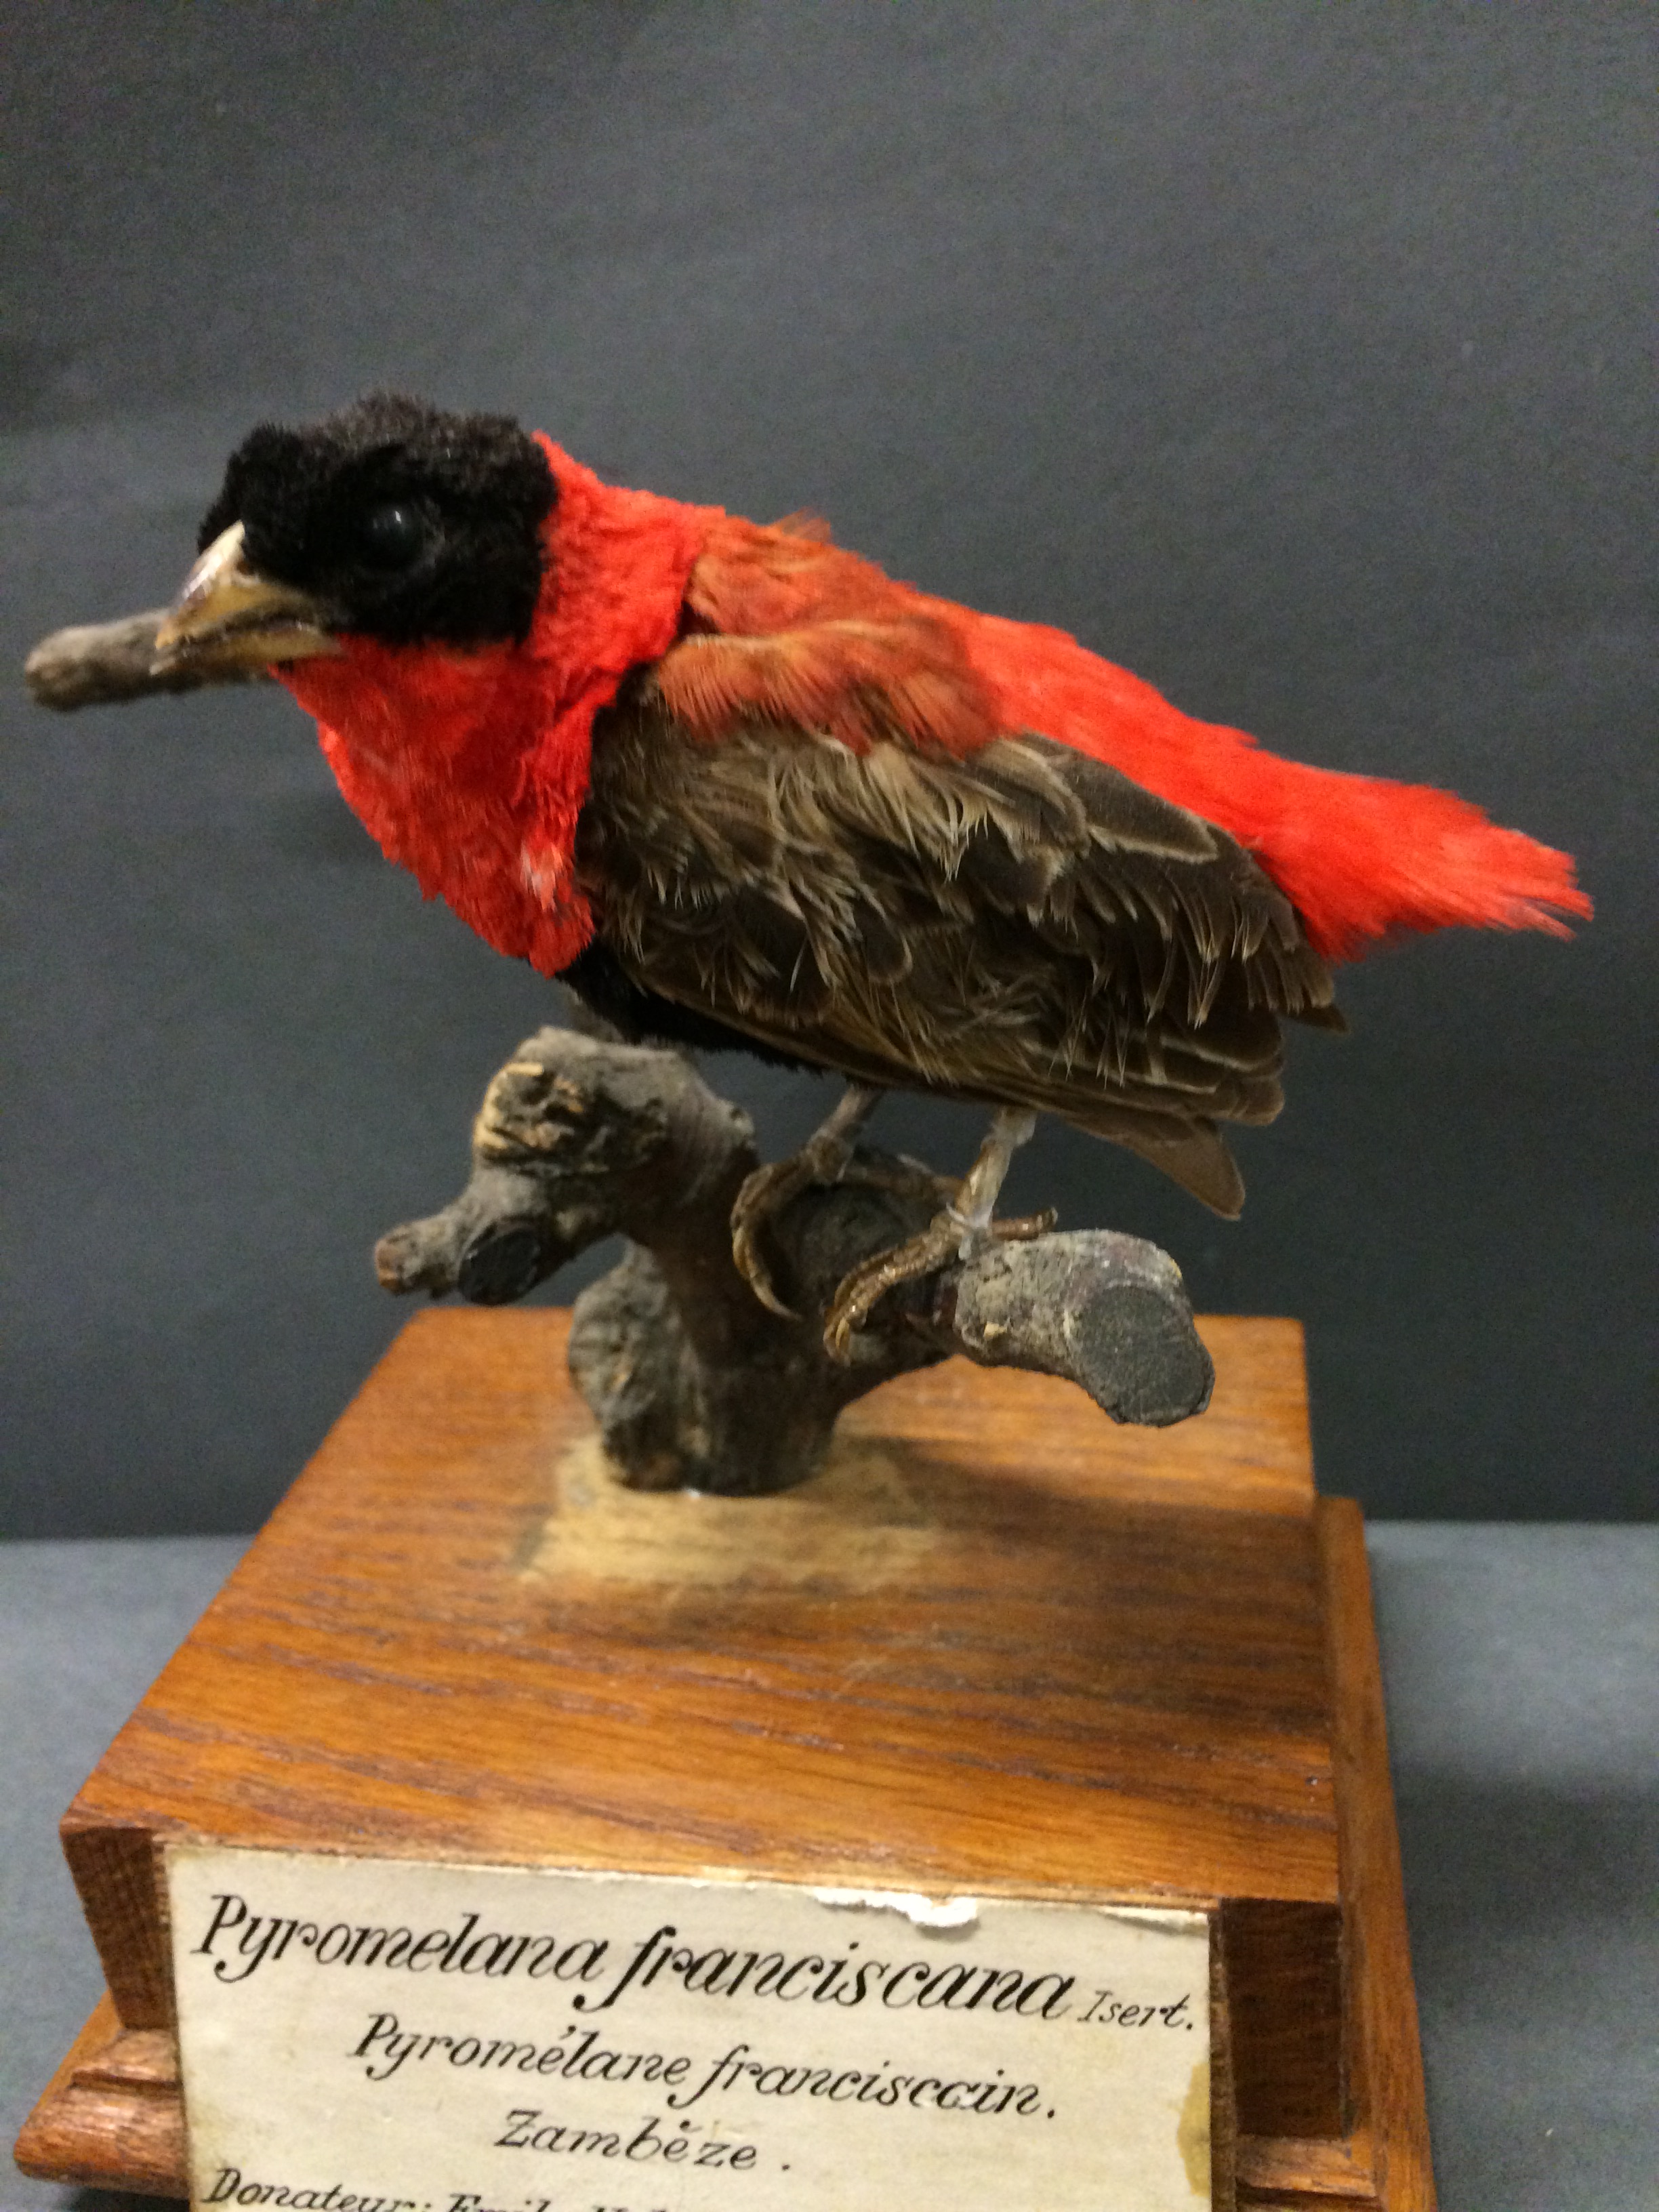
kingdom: Animalia
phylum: Chordata
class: Aves
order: Passeriformes
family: Ploceidae
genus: Euplectes
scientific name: Euplectes franciscanus
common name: Northern red bishop
